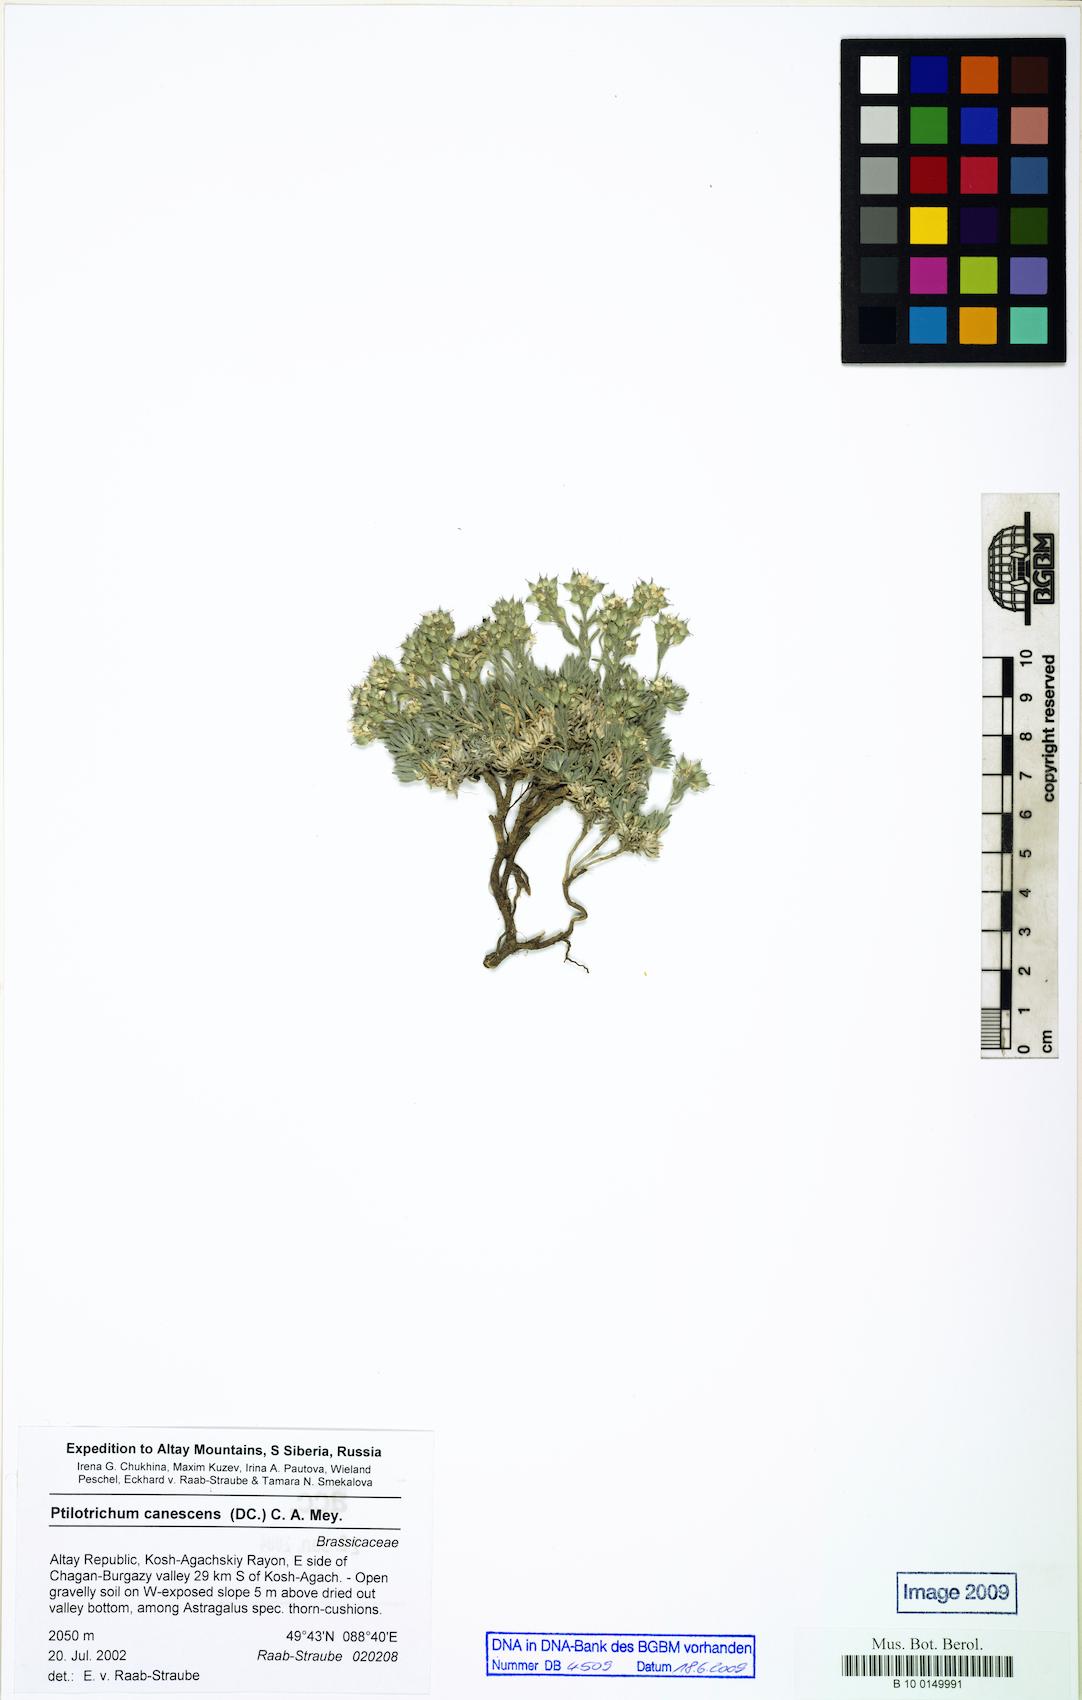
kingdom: Plantae
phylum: Tracheophyta
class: Magnoliopsida
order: Brassicales
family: Brassicaceae
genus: Stevenia
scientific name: Stevenia canescens
